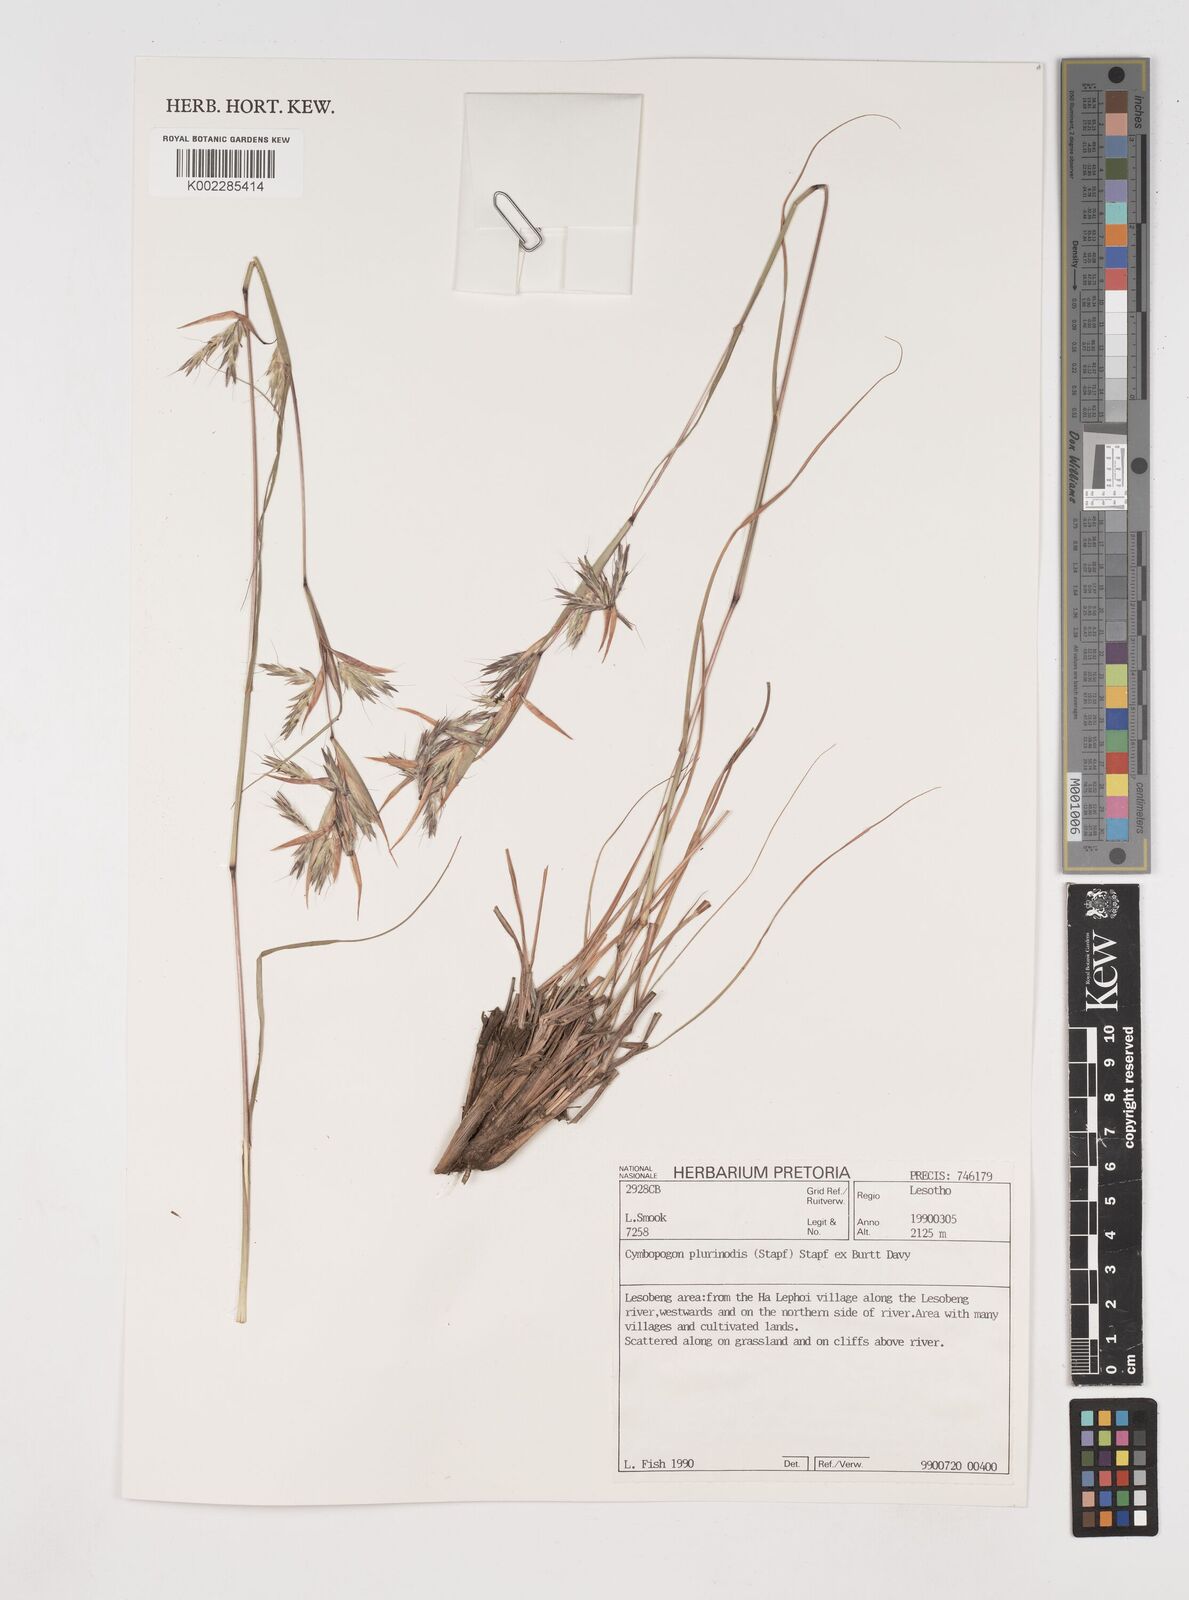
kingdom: Plantae
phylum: Tracheophyta
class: Liliopsida
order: Poales
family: Poaceae
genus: Cymbopogon
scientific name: Cymbopogon
